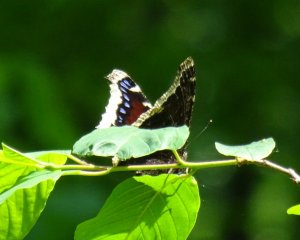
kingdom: Animalia
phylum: Arthropoda
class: Insecta
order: Lepidoptera
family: Nymphalidae
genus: Nymphalis
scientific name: Nymphalis antiopa
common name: Mourning Cloak
